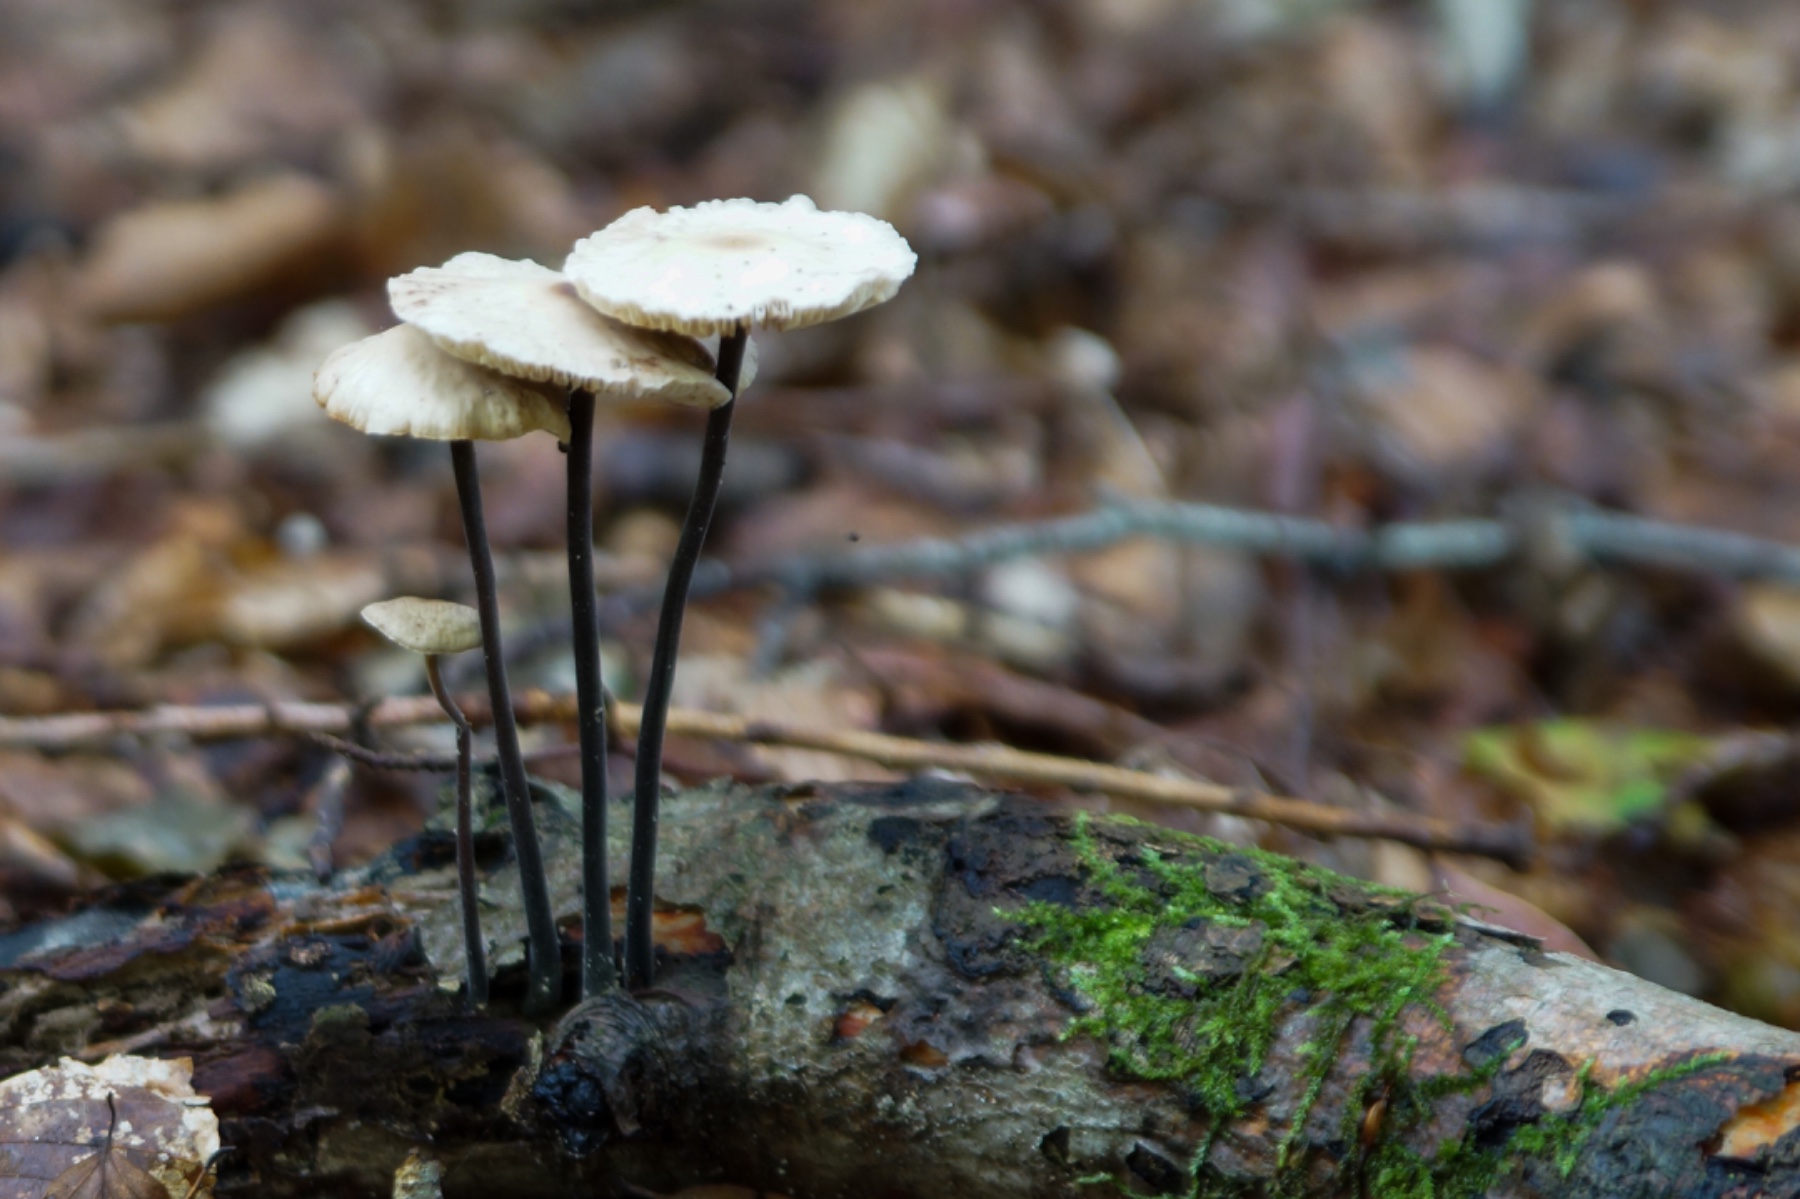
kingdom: Fungi
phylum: Basidiomycota
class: Agaricomycetes
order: Agaricales
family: Omphalotaceae
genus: Mycetinis
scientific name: Mycetinis alliaceus
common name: stor løghat
